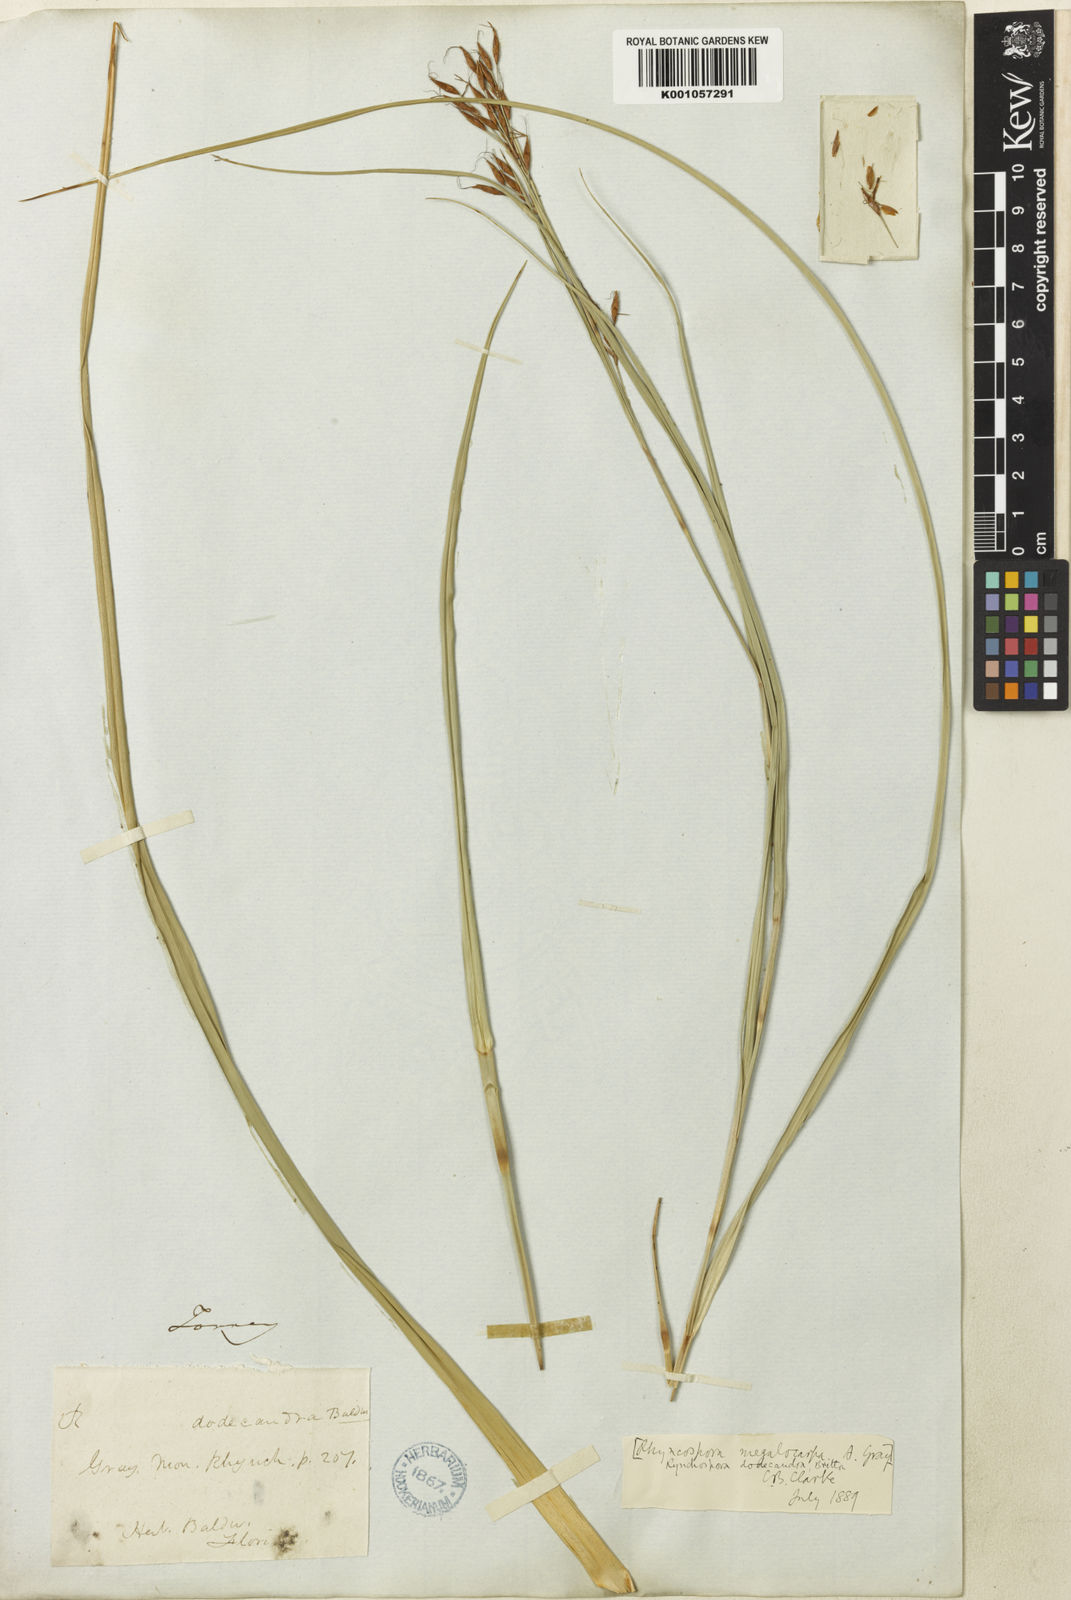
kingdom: Plantae
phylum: Tracheophyta
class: Liliopsida
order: Poales
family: Cyperaceae
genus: Rhynchospora
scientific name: Rhynchospora megalocarpa
